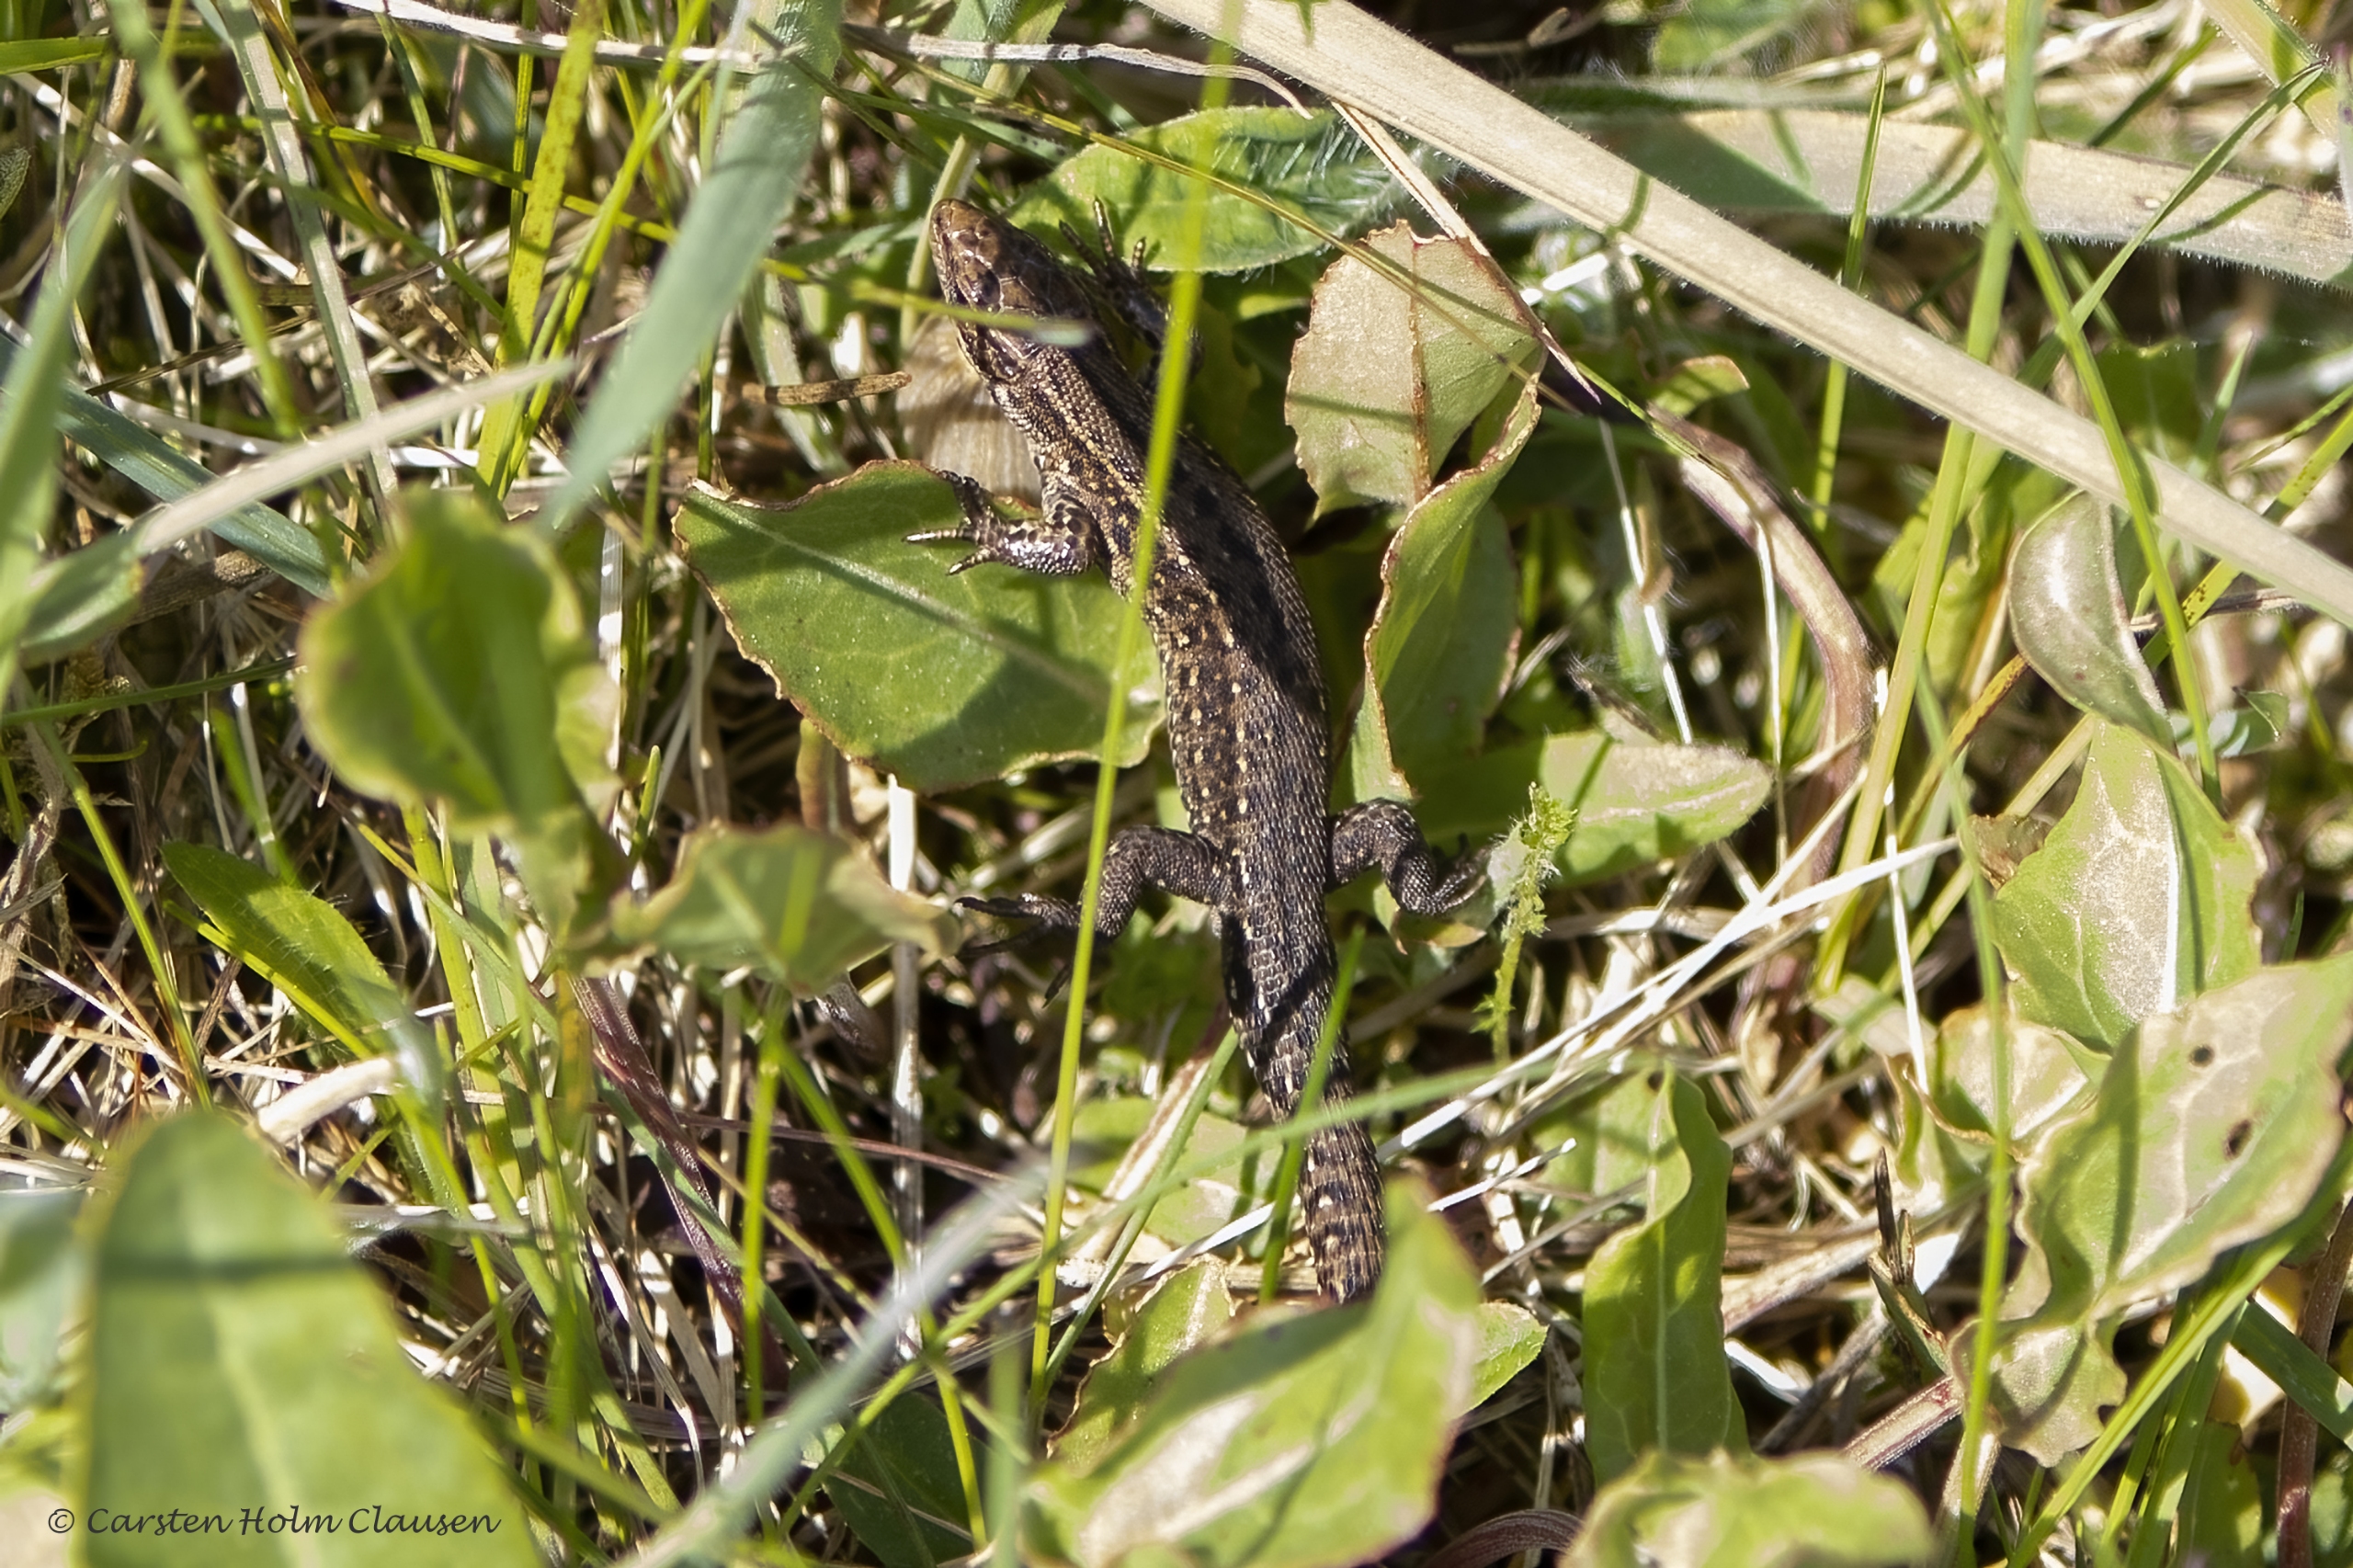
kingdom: Animalia
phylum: Chordata
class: Squamata
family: Lacertidae
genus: Zootoca
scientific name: Zootoca vivipara
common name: Skovfirben
